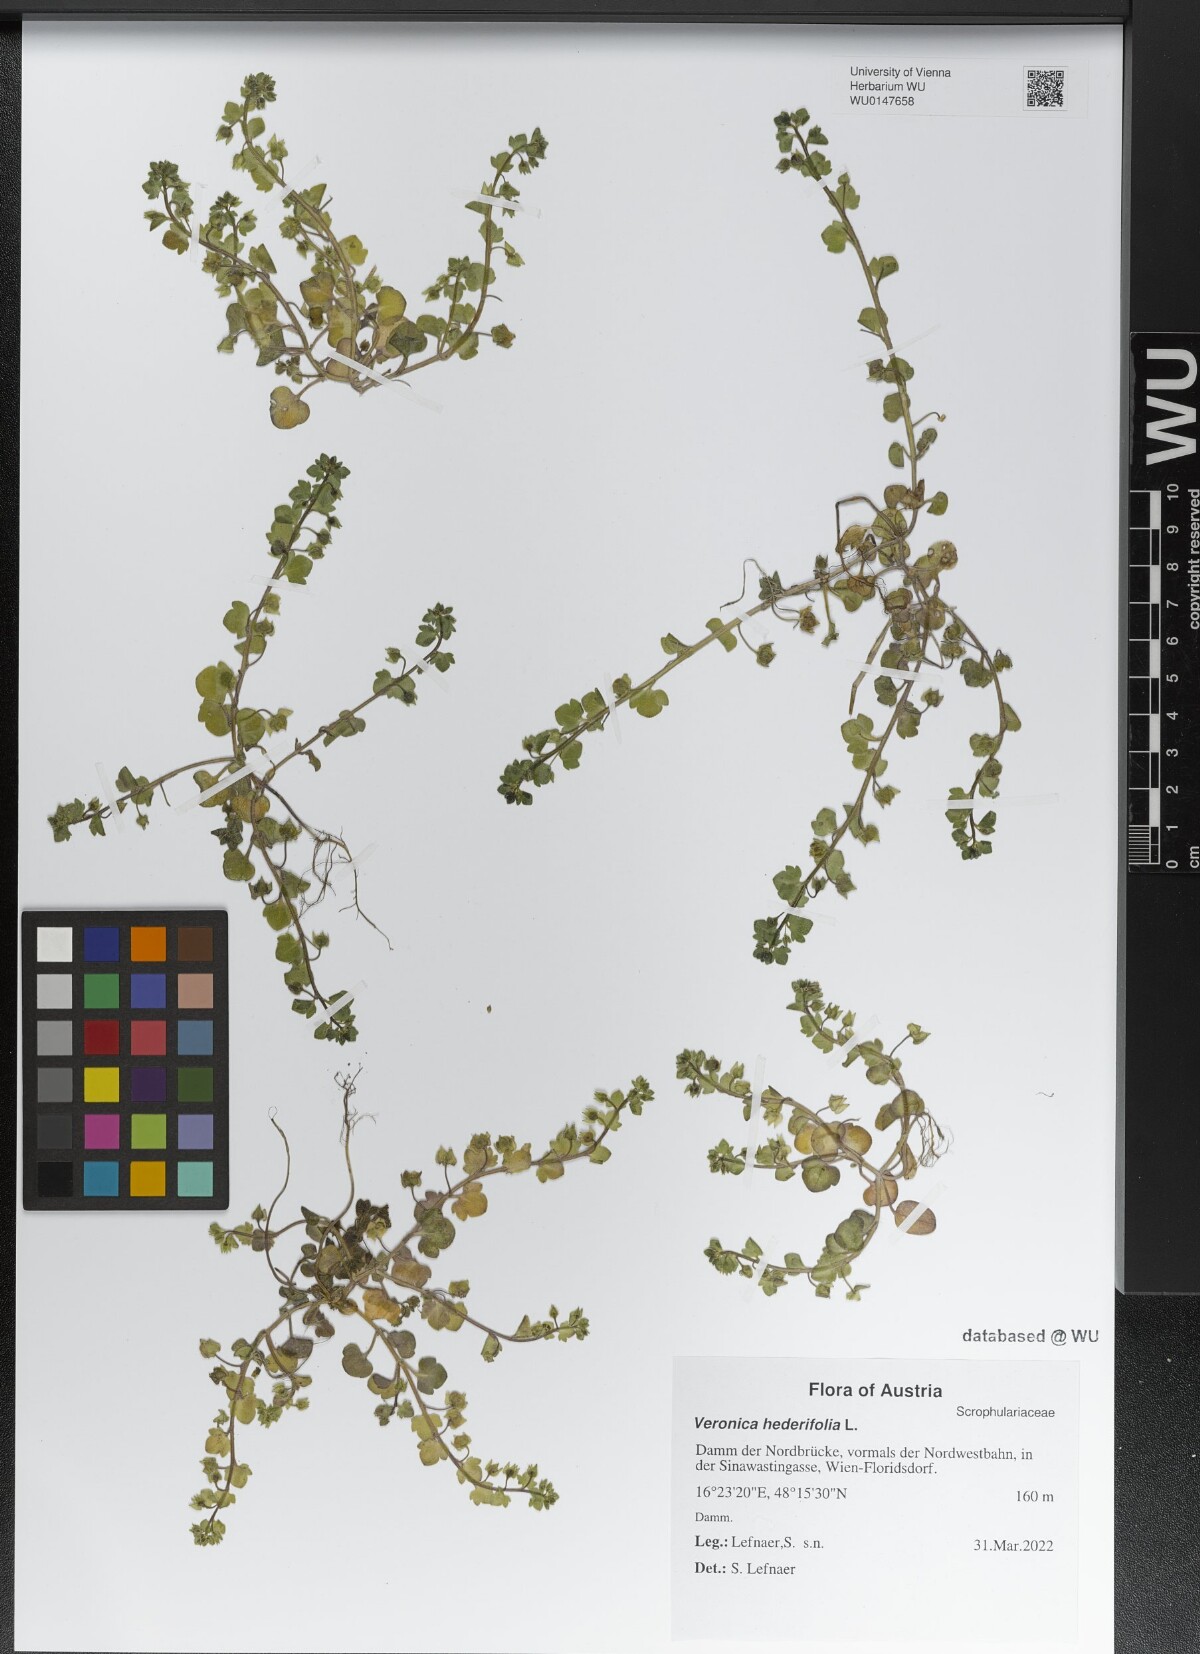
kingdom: Plantae
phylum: Tracheophyta
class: Magnoliopsida
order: Lamiales
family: Plantaginaceae
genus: Veronica
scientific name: Veronica hederifolia
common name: Ivy-leaved speedwell
